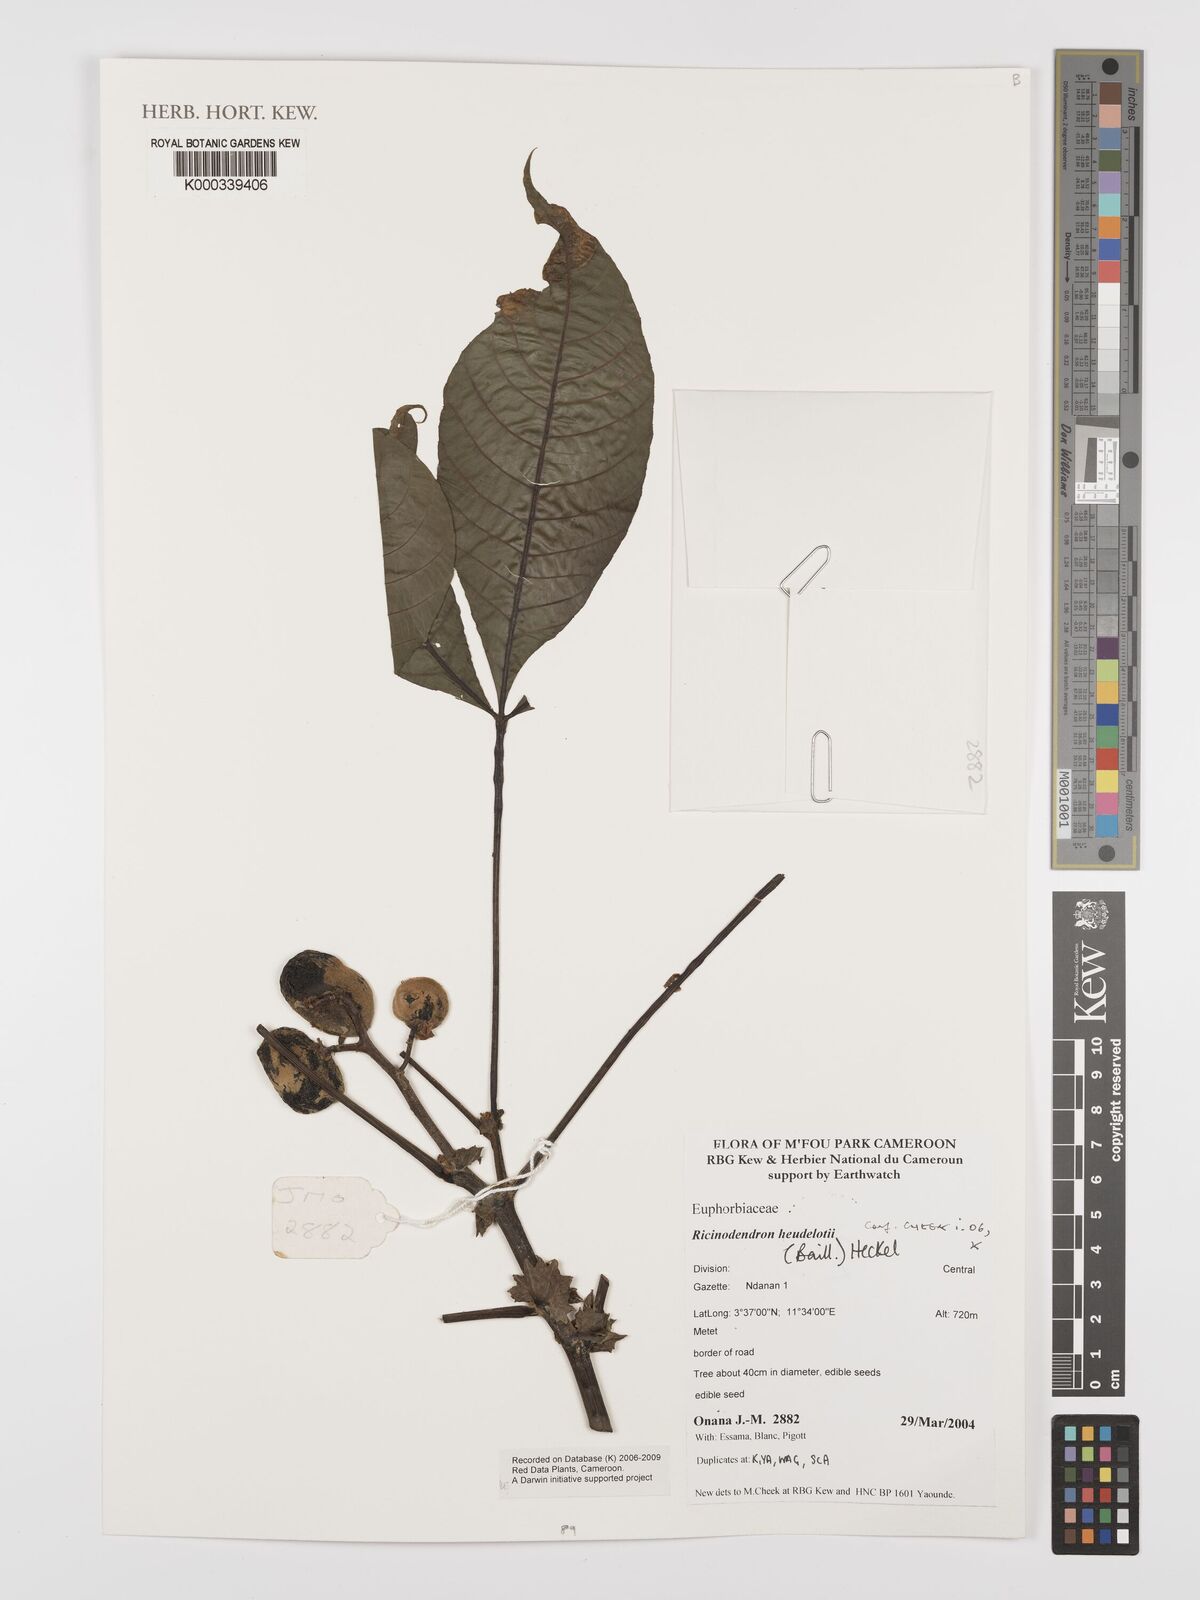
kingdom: Plantae
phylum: Tracheophyta
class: Magnoliopsida
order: Malpighiales
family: Euphorbiaceae
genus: Ricinodendron
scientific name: Ricinodendron heudelotii
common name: African nut-tree
